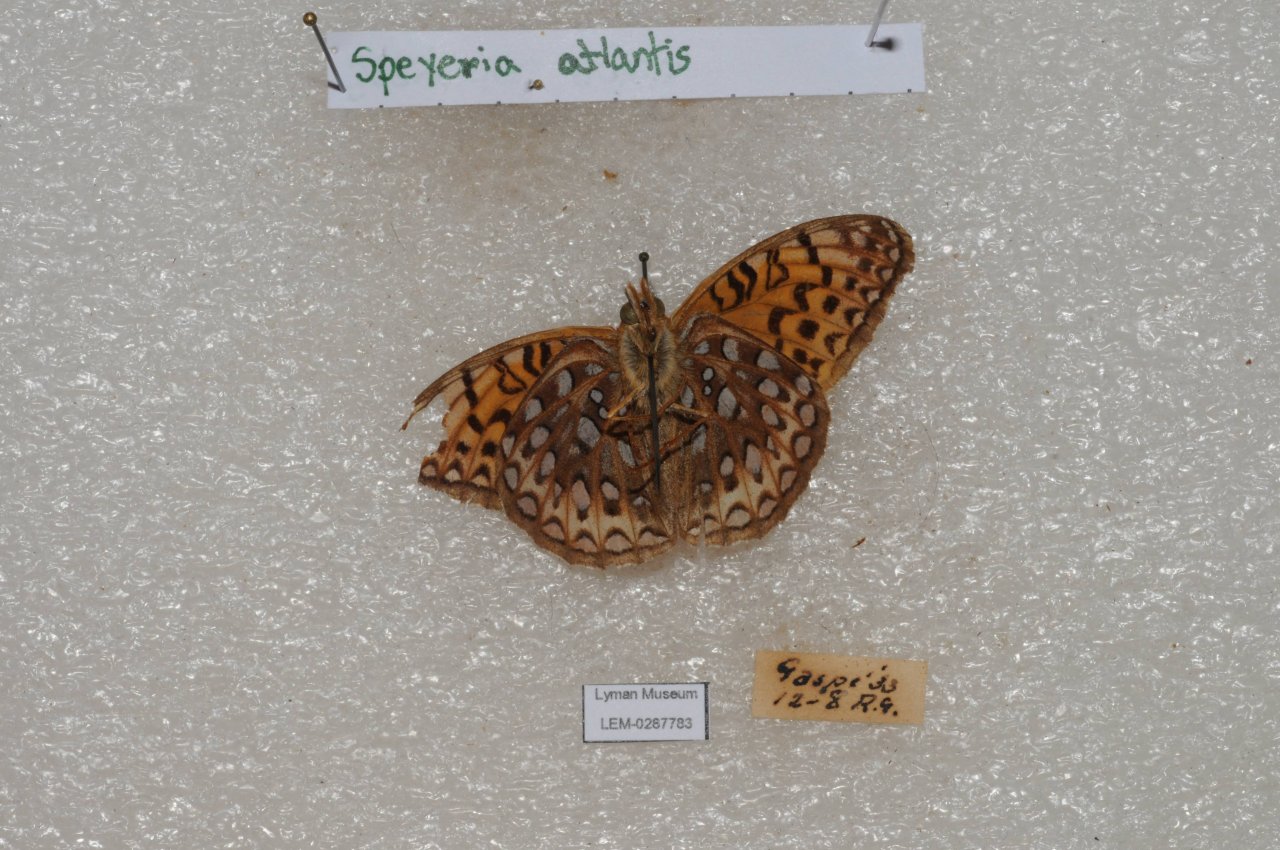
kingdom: Animalia
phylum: Arthropoda
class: Insecta
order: Lepidoptera
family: Nymphalidae
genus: Speyeria
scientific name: Speyeria atlantis
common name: Atlantis Fritillary
